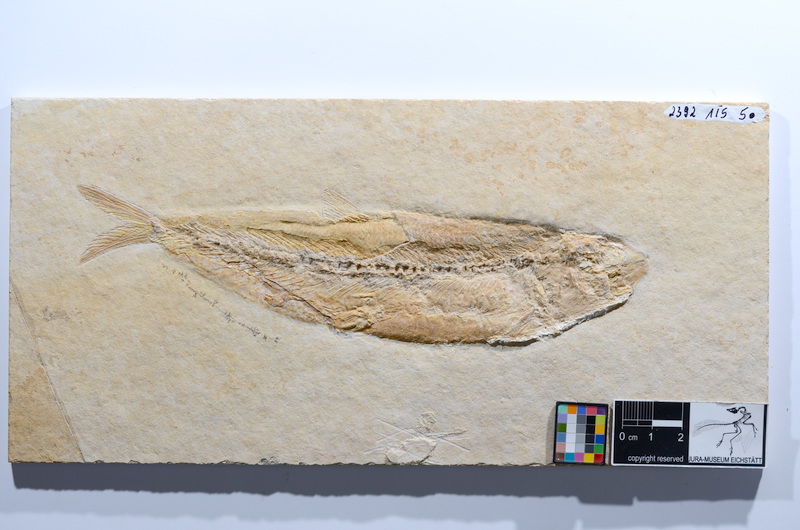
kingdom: Animalia
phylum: Chordata
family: Ascalaboidae
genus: Tharsis
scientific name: Tharsis dubius
